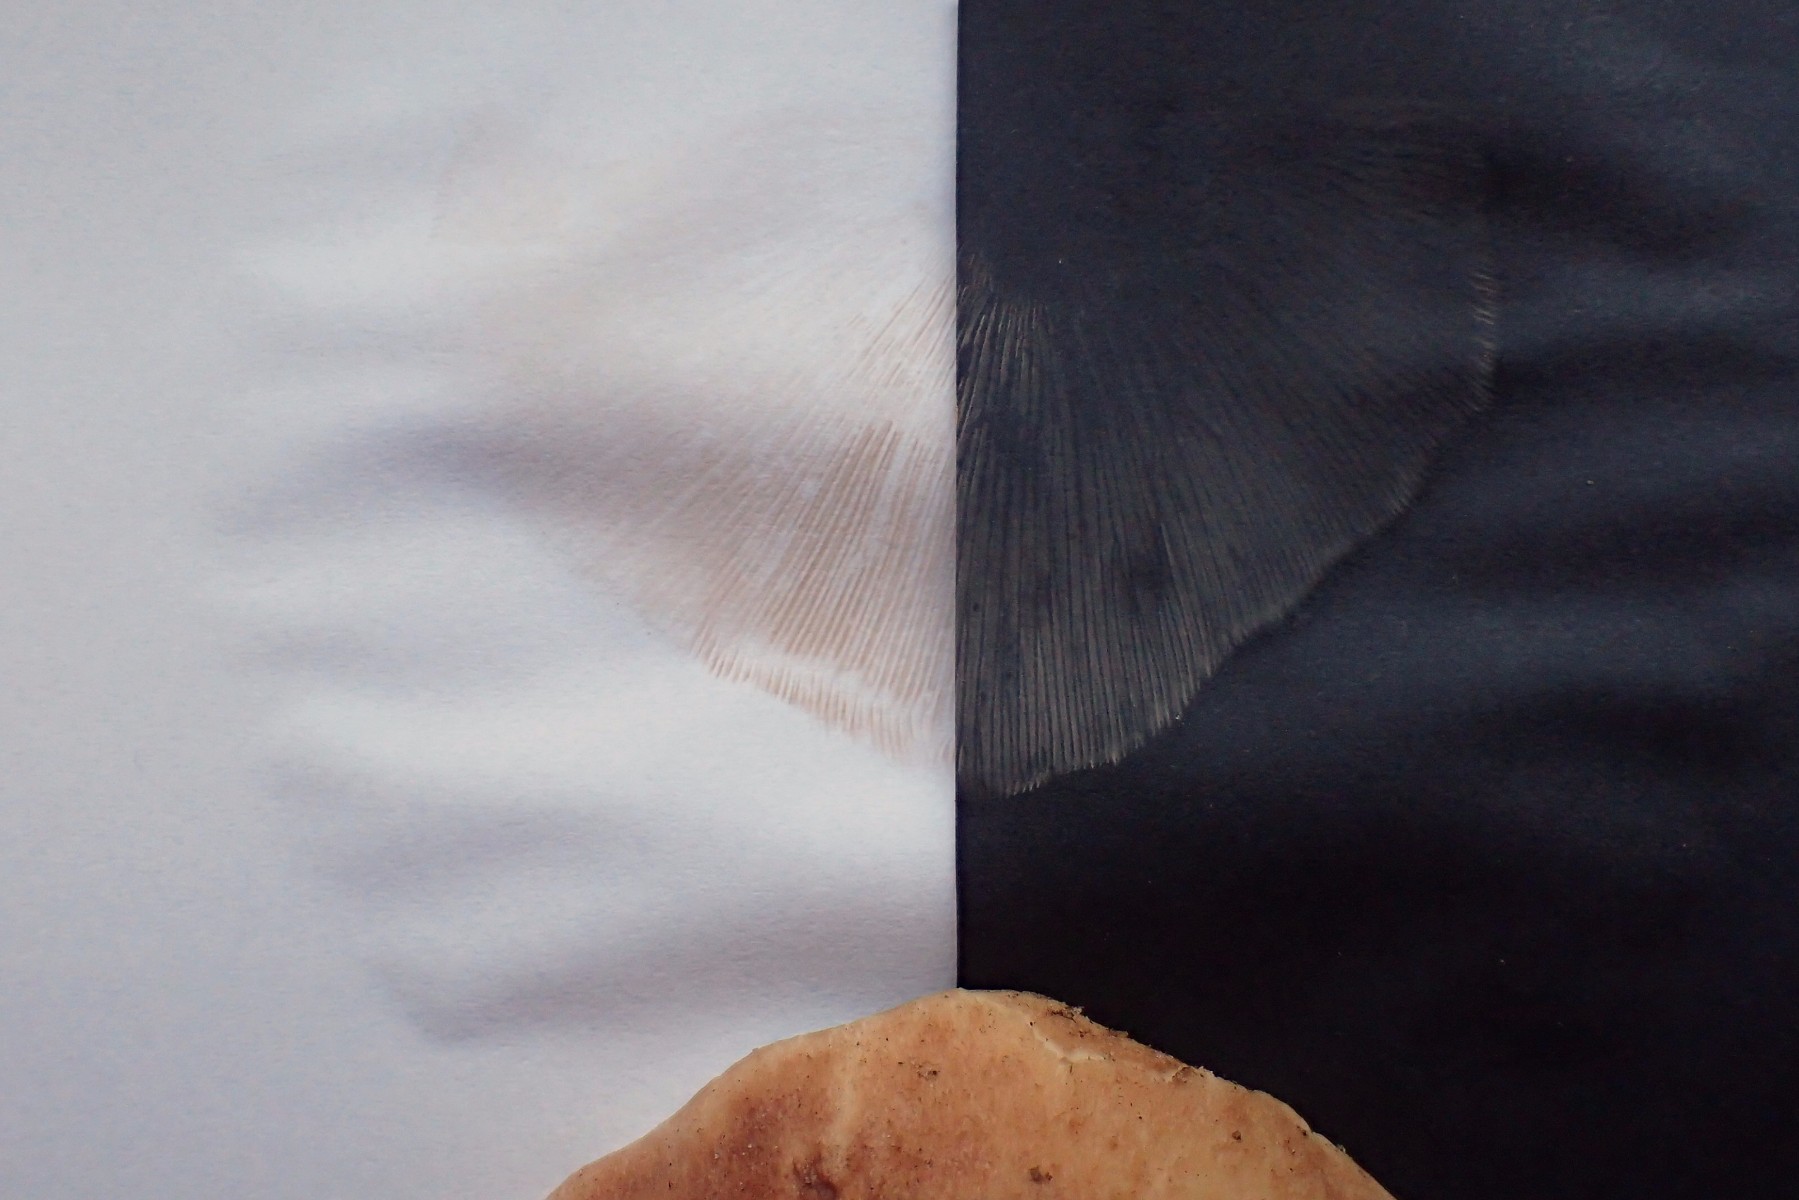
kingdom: Fungi
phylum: Basidiomycota
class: Agaricomycetes
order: Agaricales
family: Entolomataceae
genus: Clitopilus
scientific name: Clitopilus geminus
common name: kødfarvet troldhat
